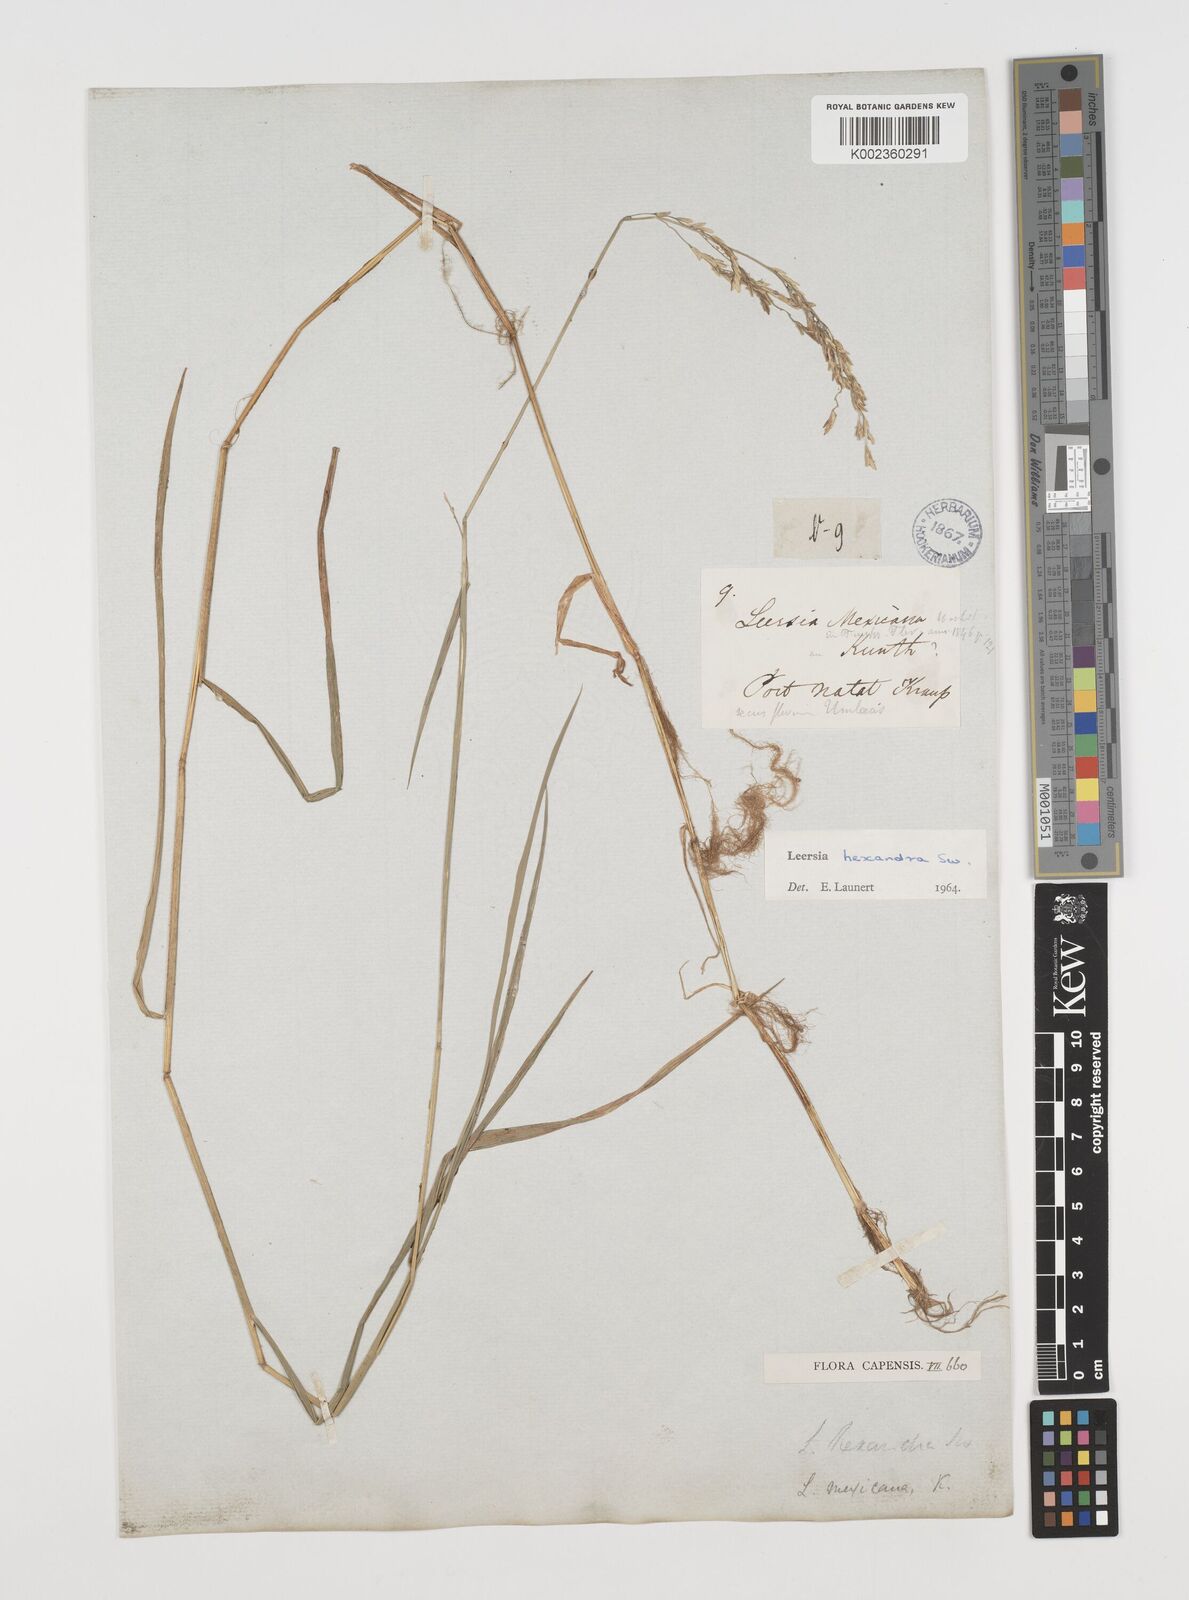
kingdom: Plantae
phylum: Tracheophyta
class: Liliopsida
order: Poales
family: Poaceae
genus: Leersia
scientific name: Leersia hexandra
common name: Southern cut grass
